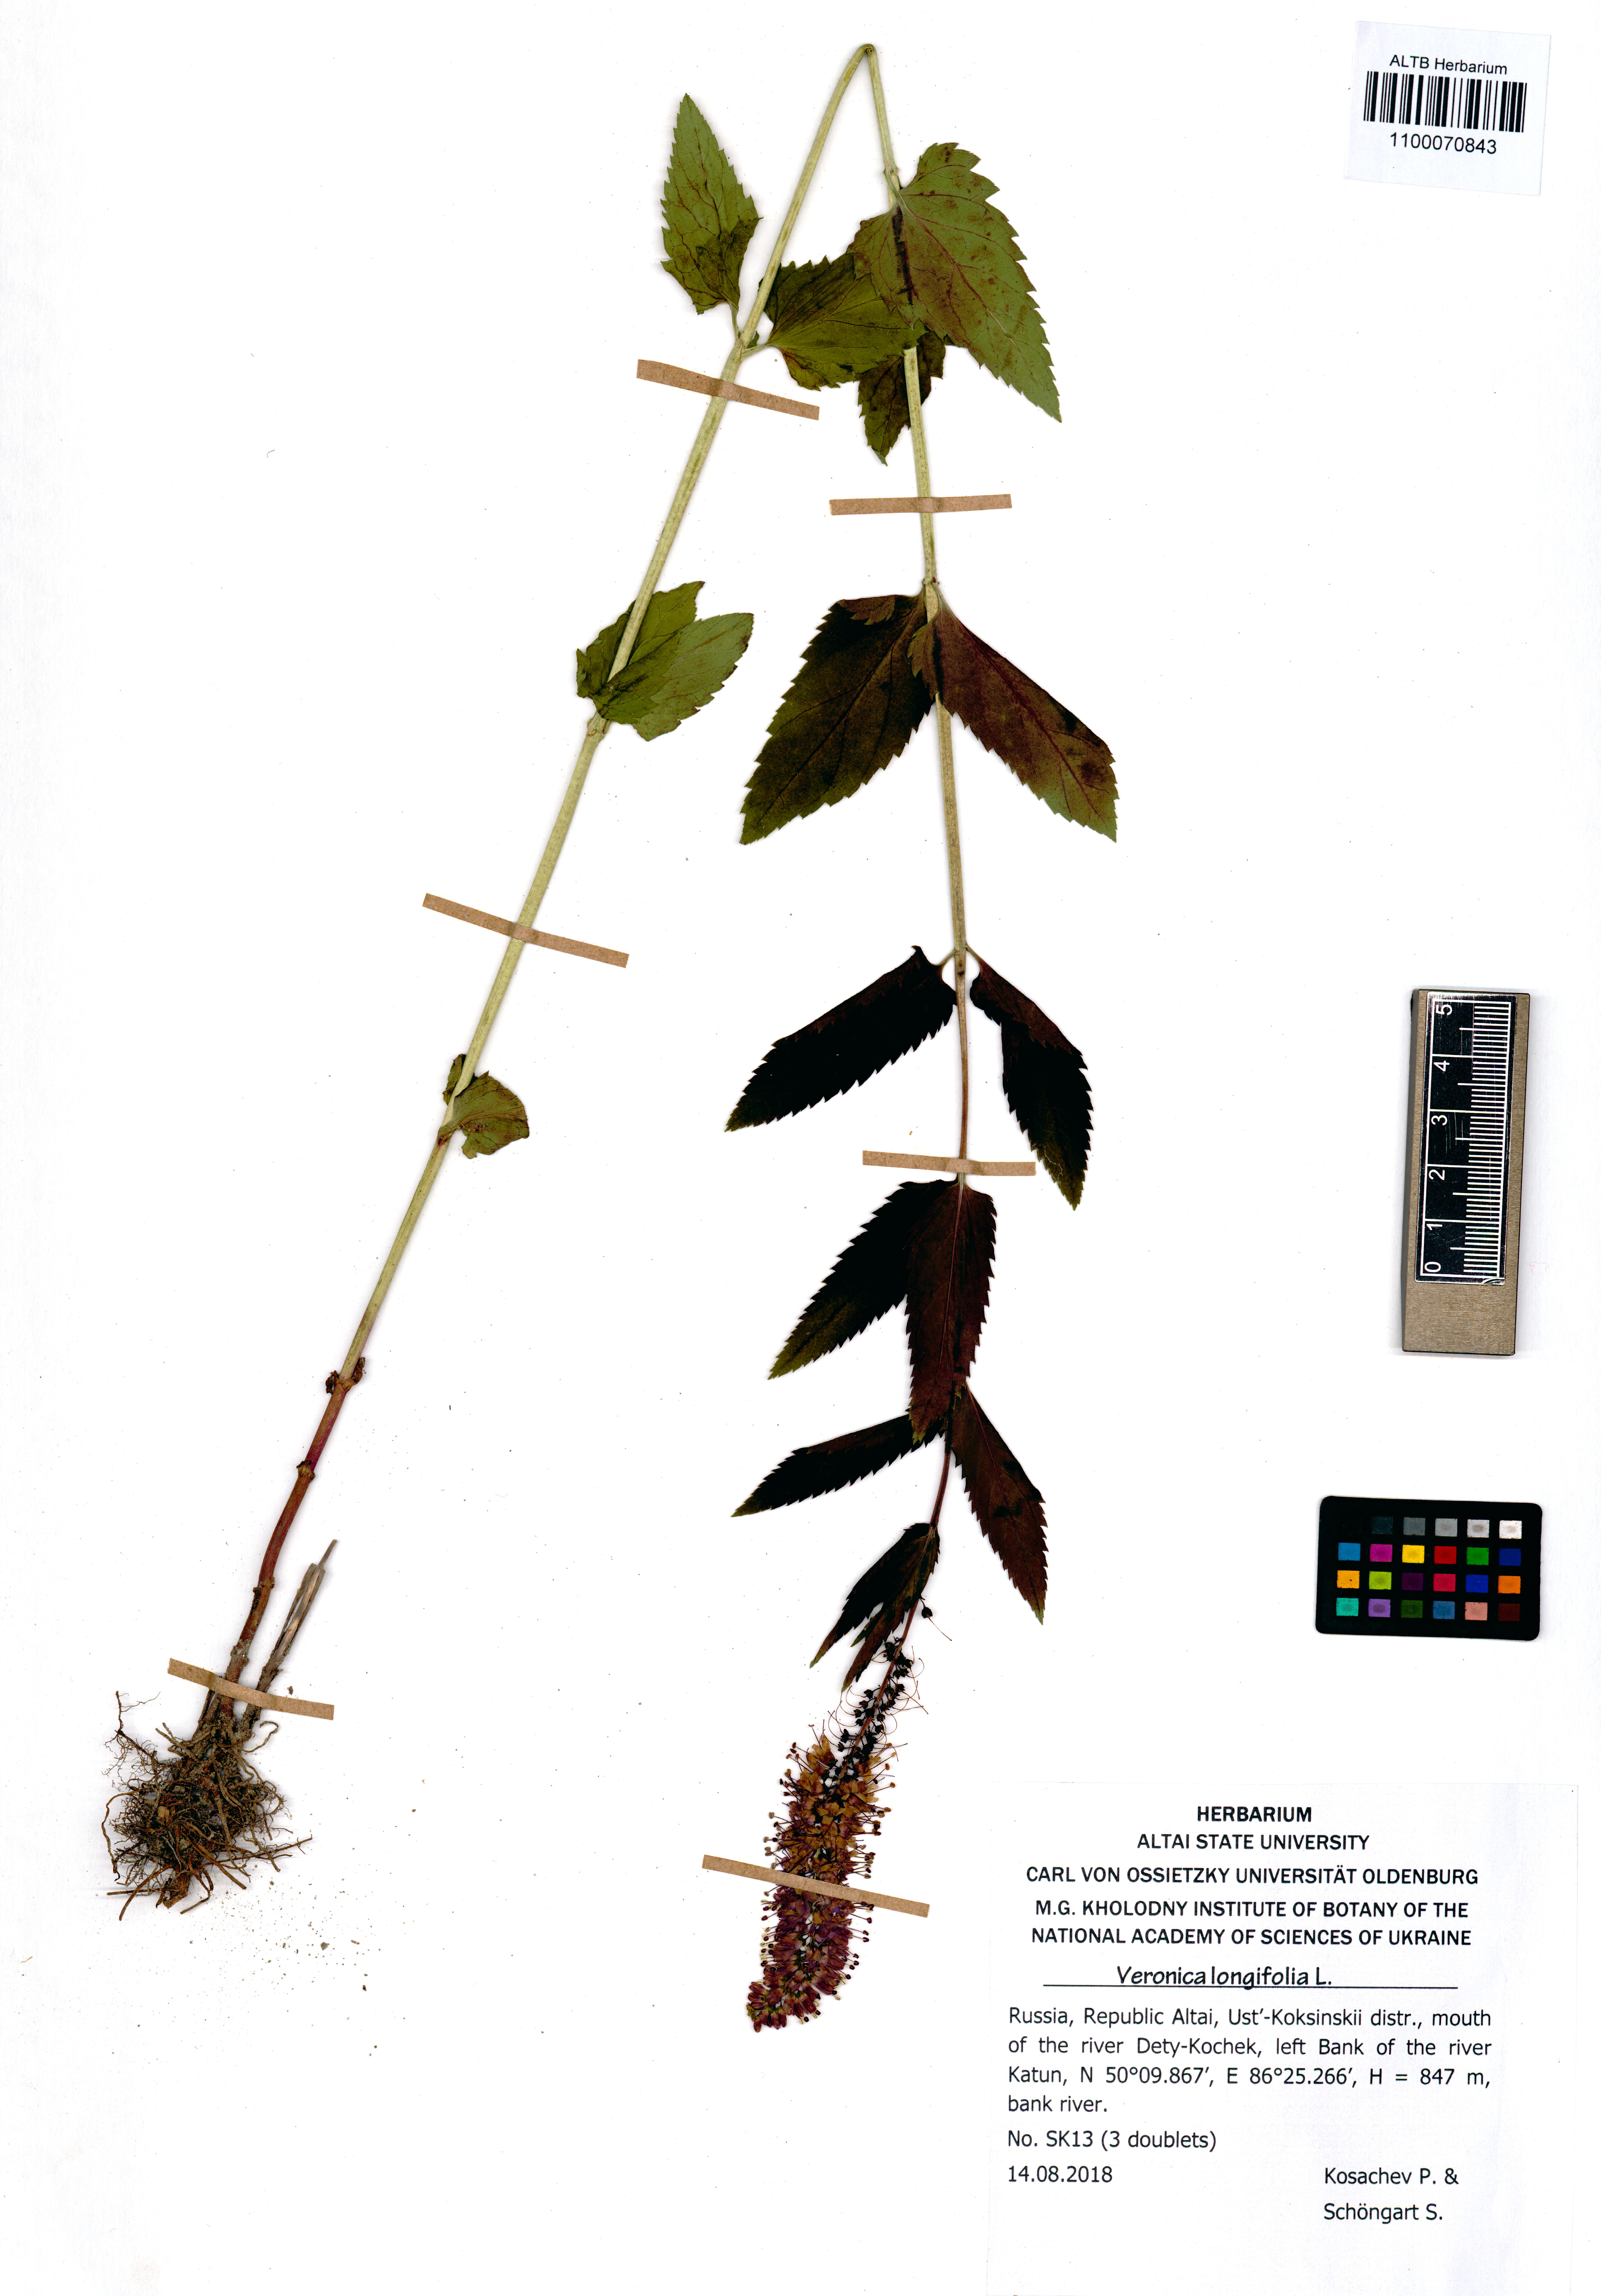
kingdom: Plantae
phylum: Tracheophyta
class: Magnoliopsida
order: Lamiales
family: Plantaginaceae
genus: Veronica
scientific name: Veronica longifolia
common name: Garden speedwell
